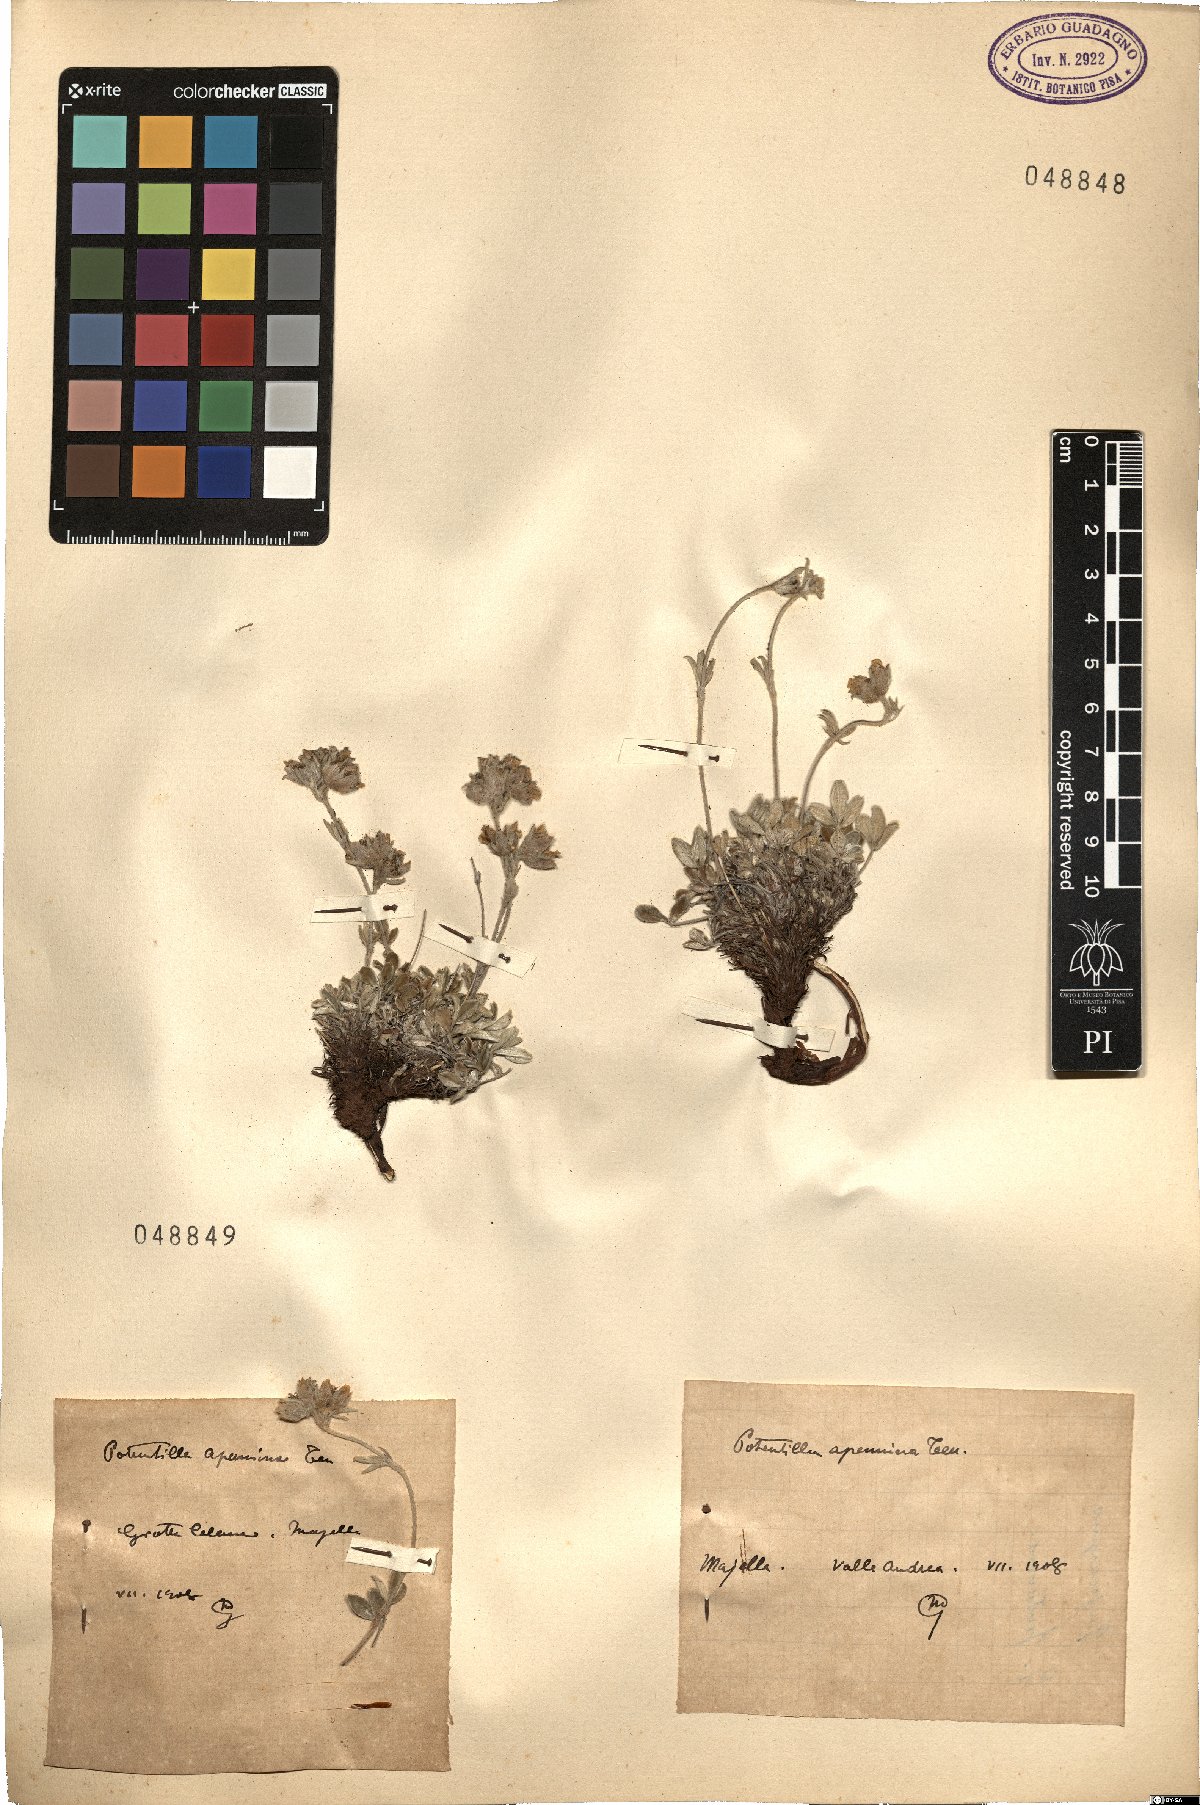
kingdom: Plantae
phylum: Tracheophyta
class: Magnoliopsida
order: Rosales
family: Rosaceae
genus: Potentilla
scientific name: Potentilla apennina
